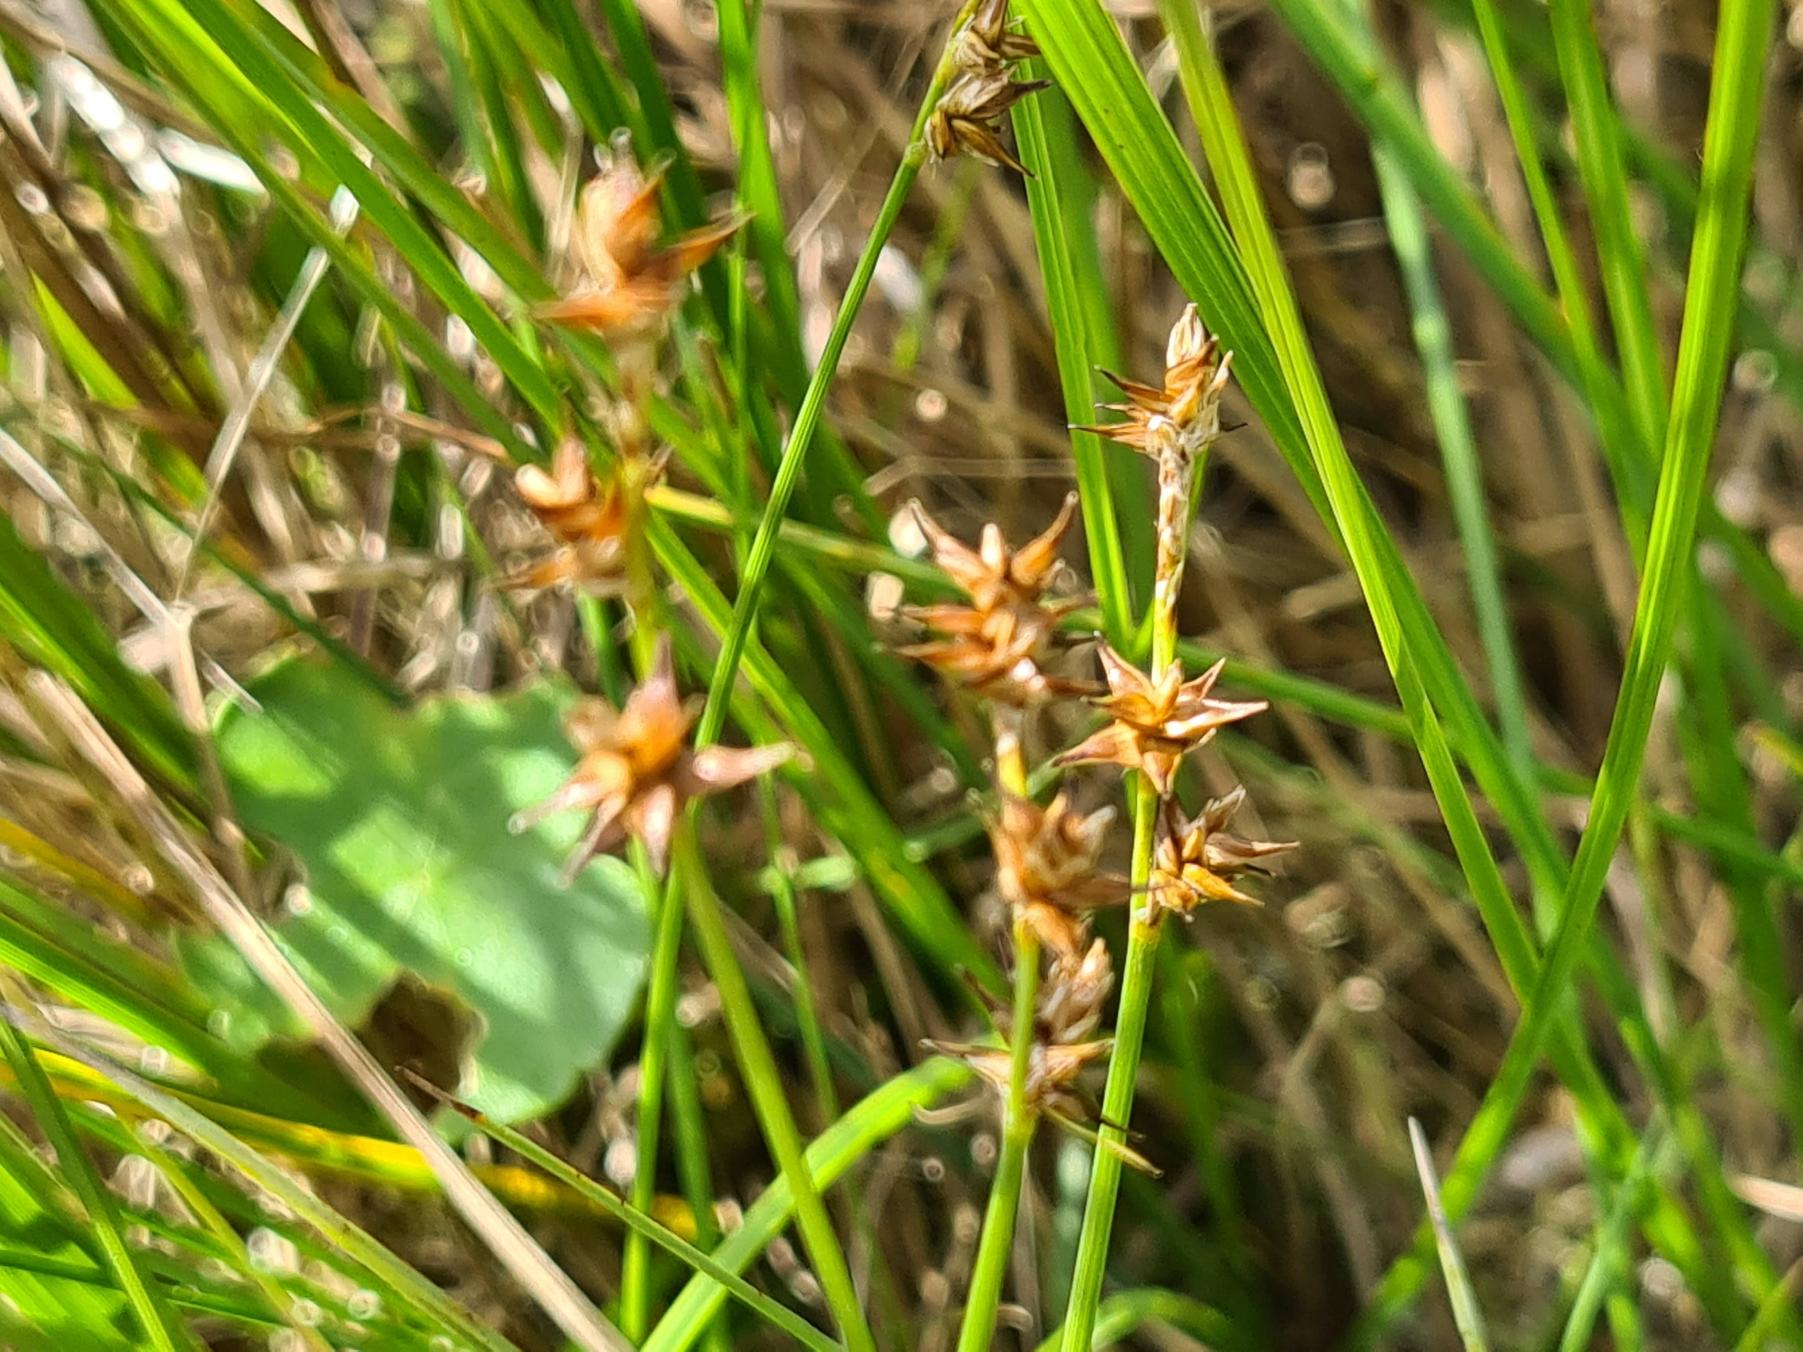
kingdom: Plantae
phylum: Tracheophyta
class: Liliopsida
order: Poales
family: Cyperaceae
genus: Carex
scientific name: Carex echinata
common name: Stjerne-star
